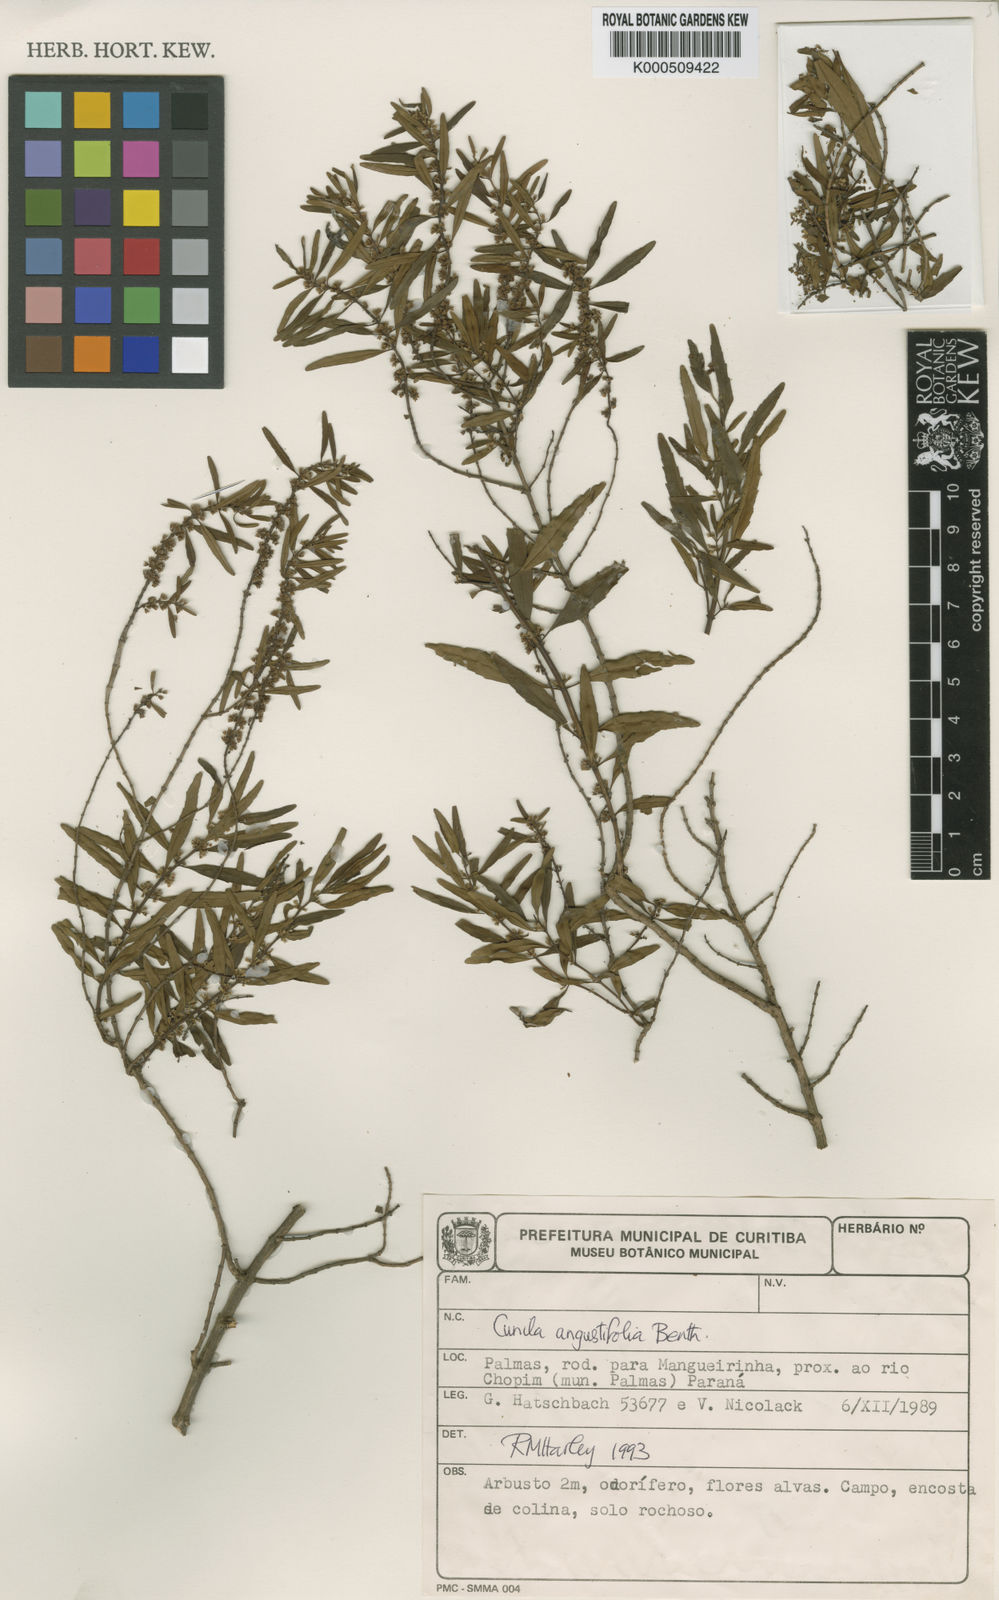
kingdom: Plantae
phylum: Tracheophyta
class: Magnoliopsida
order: Lamiales
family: Lamiaceae
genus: Cunila
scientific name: Cunila angustifolia
